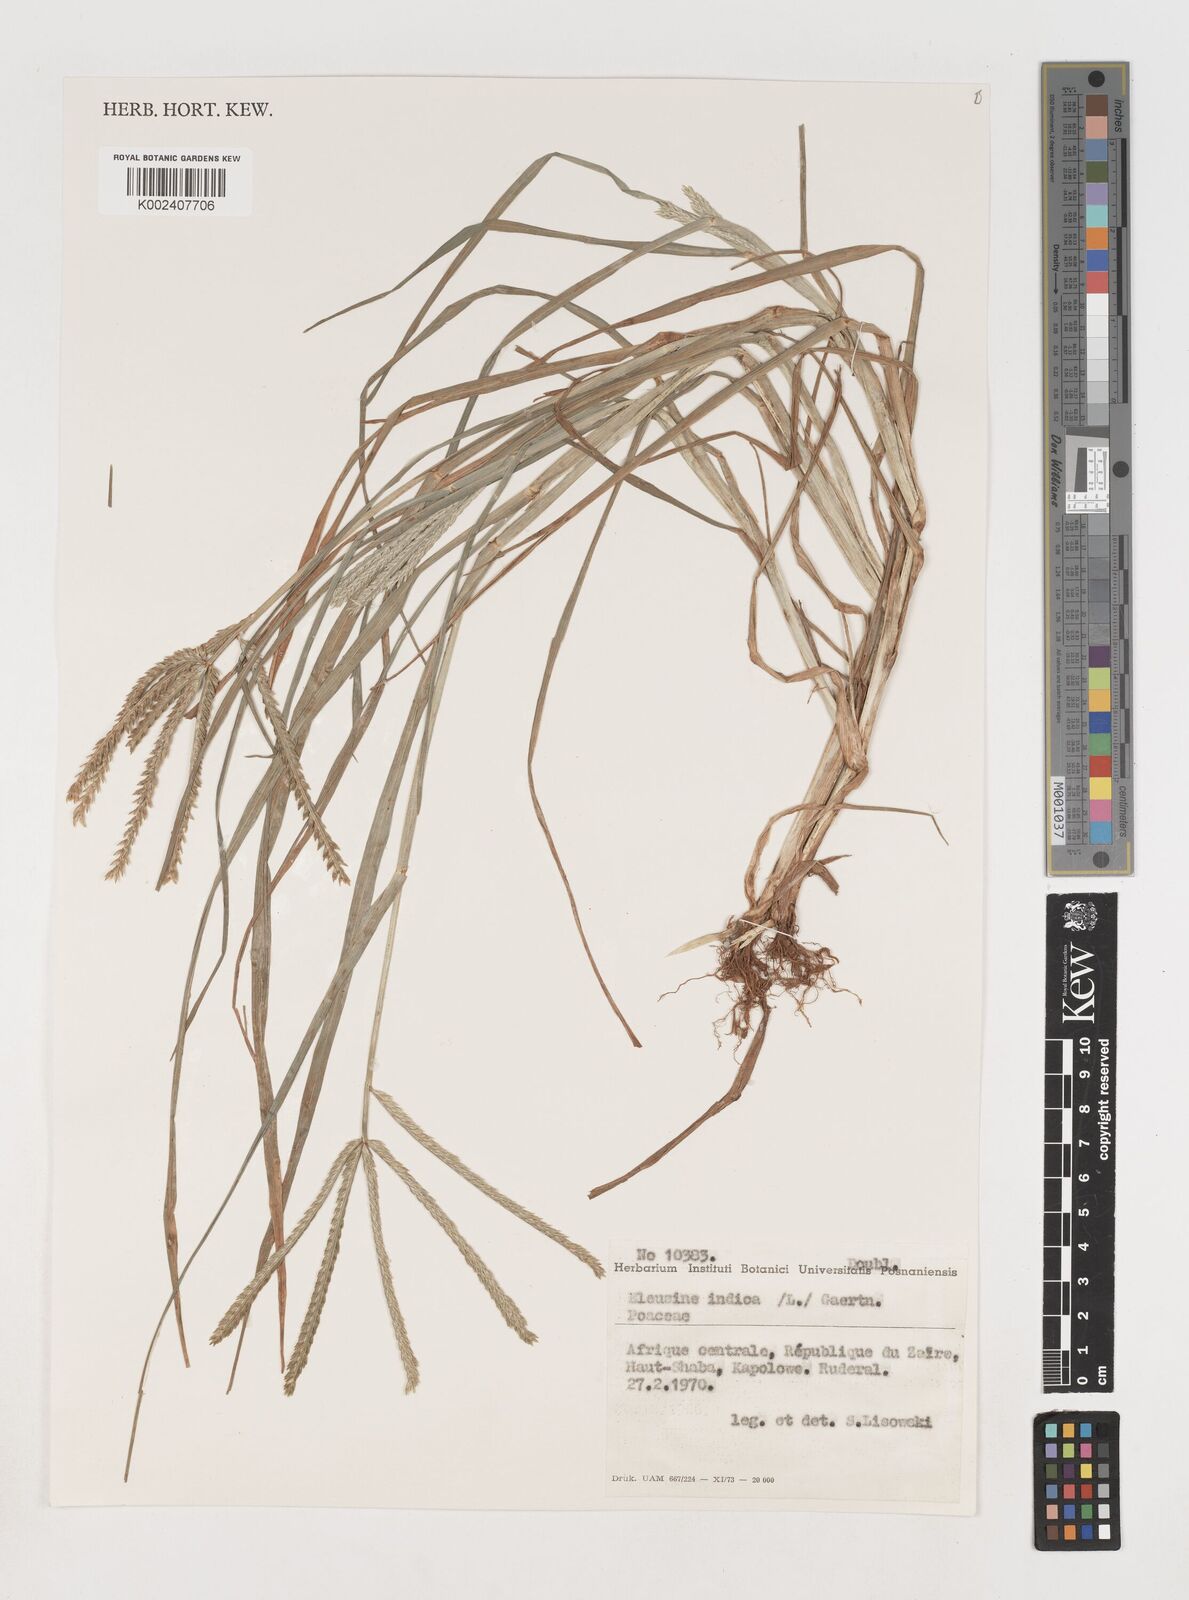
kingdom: Plantae
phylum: Tracheophyta
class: Liliopsida
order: Poales
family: Poaceae
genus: Eleusine
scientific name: Eleusine indica
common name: Yard-grass
